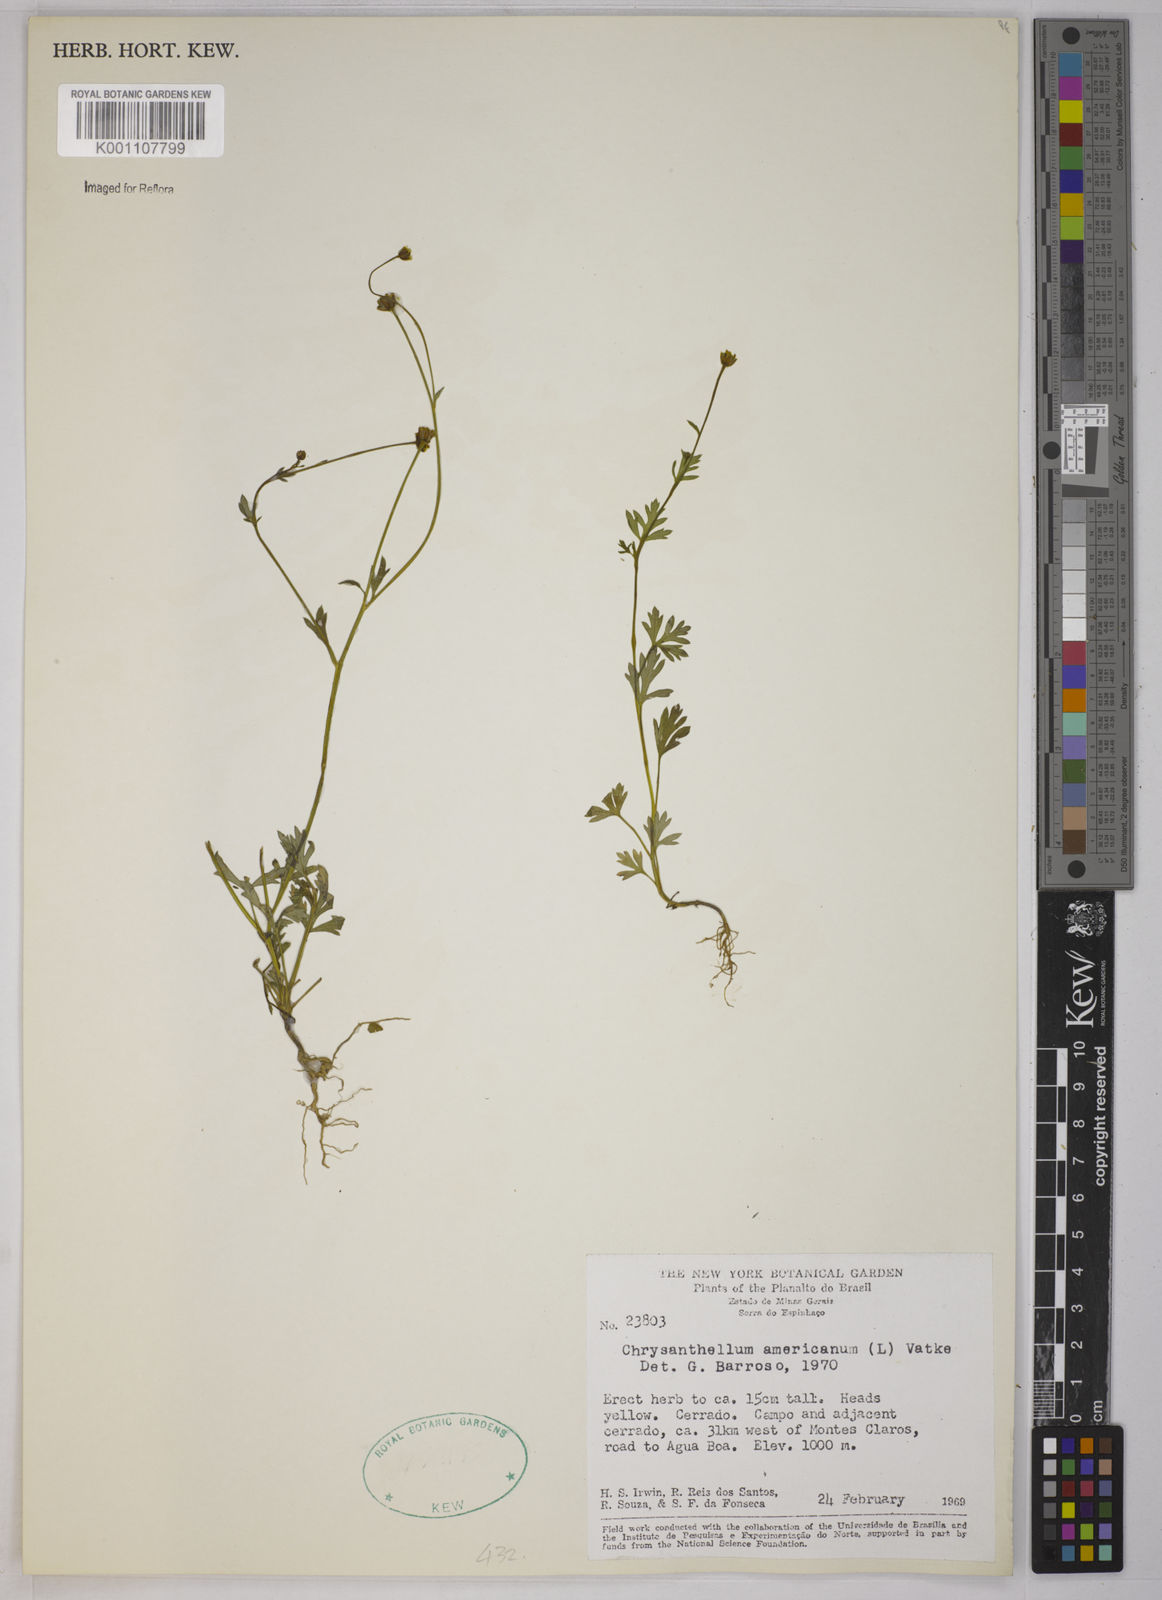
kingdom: Plantae
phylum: Tracheophyta
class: Magnoliopsida
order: Asterales
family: Asteraceae
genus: Chrysanthellum
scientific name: Chrysanthellum indicum
